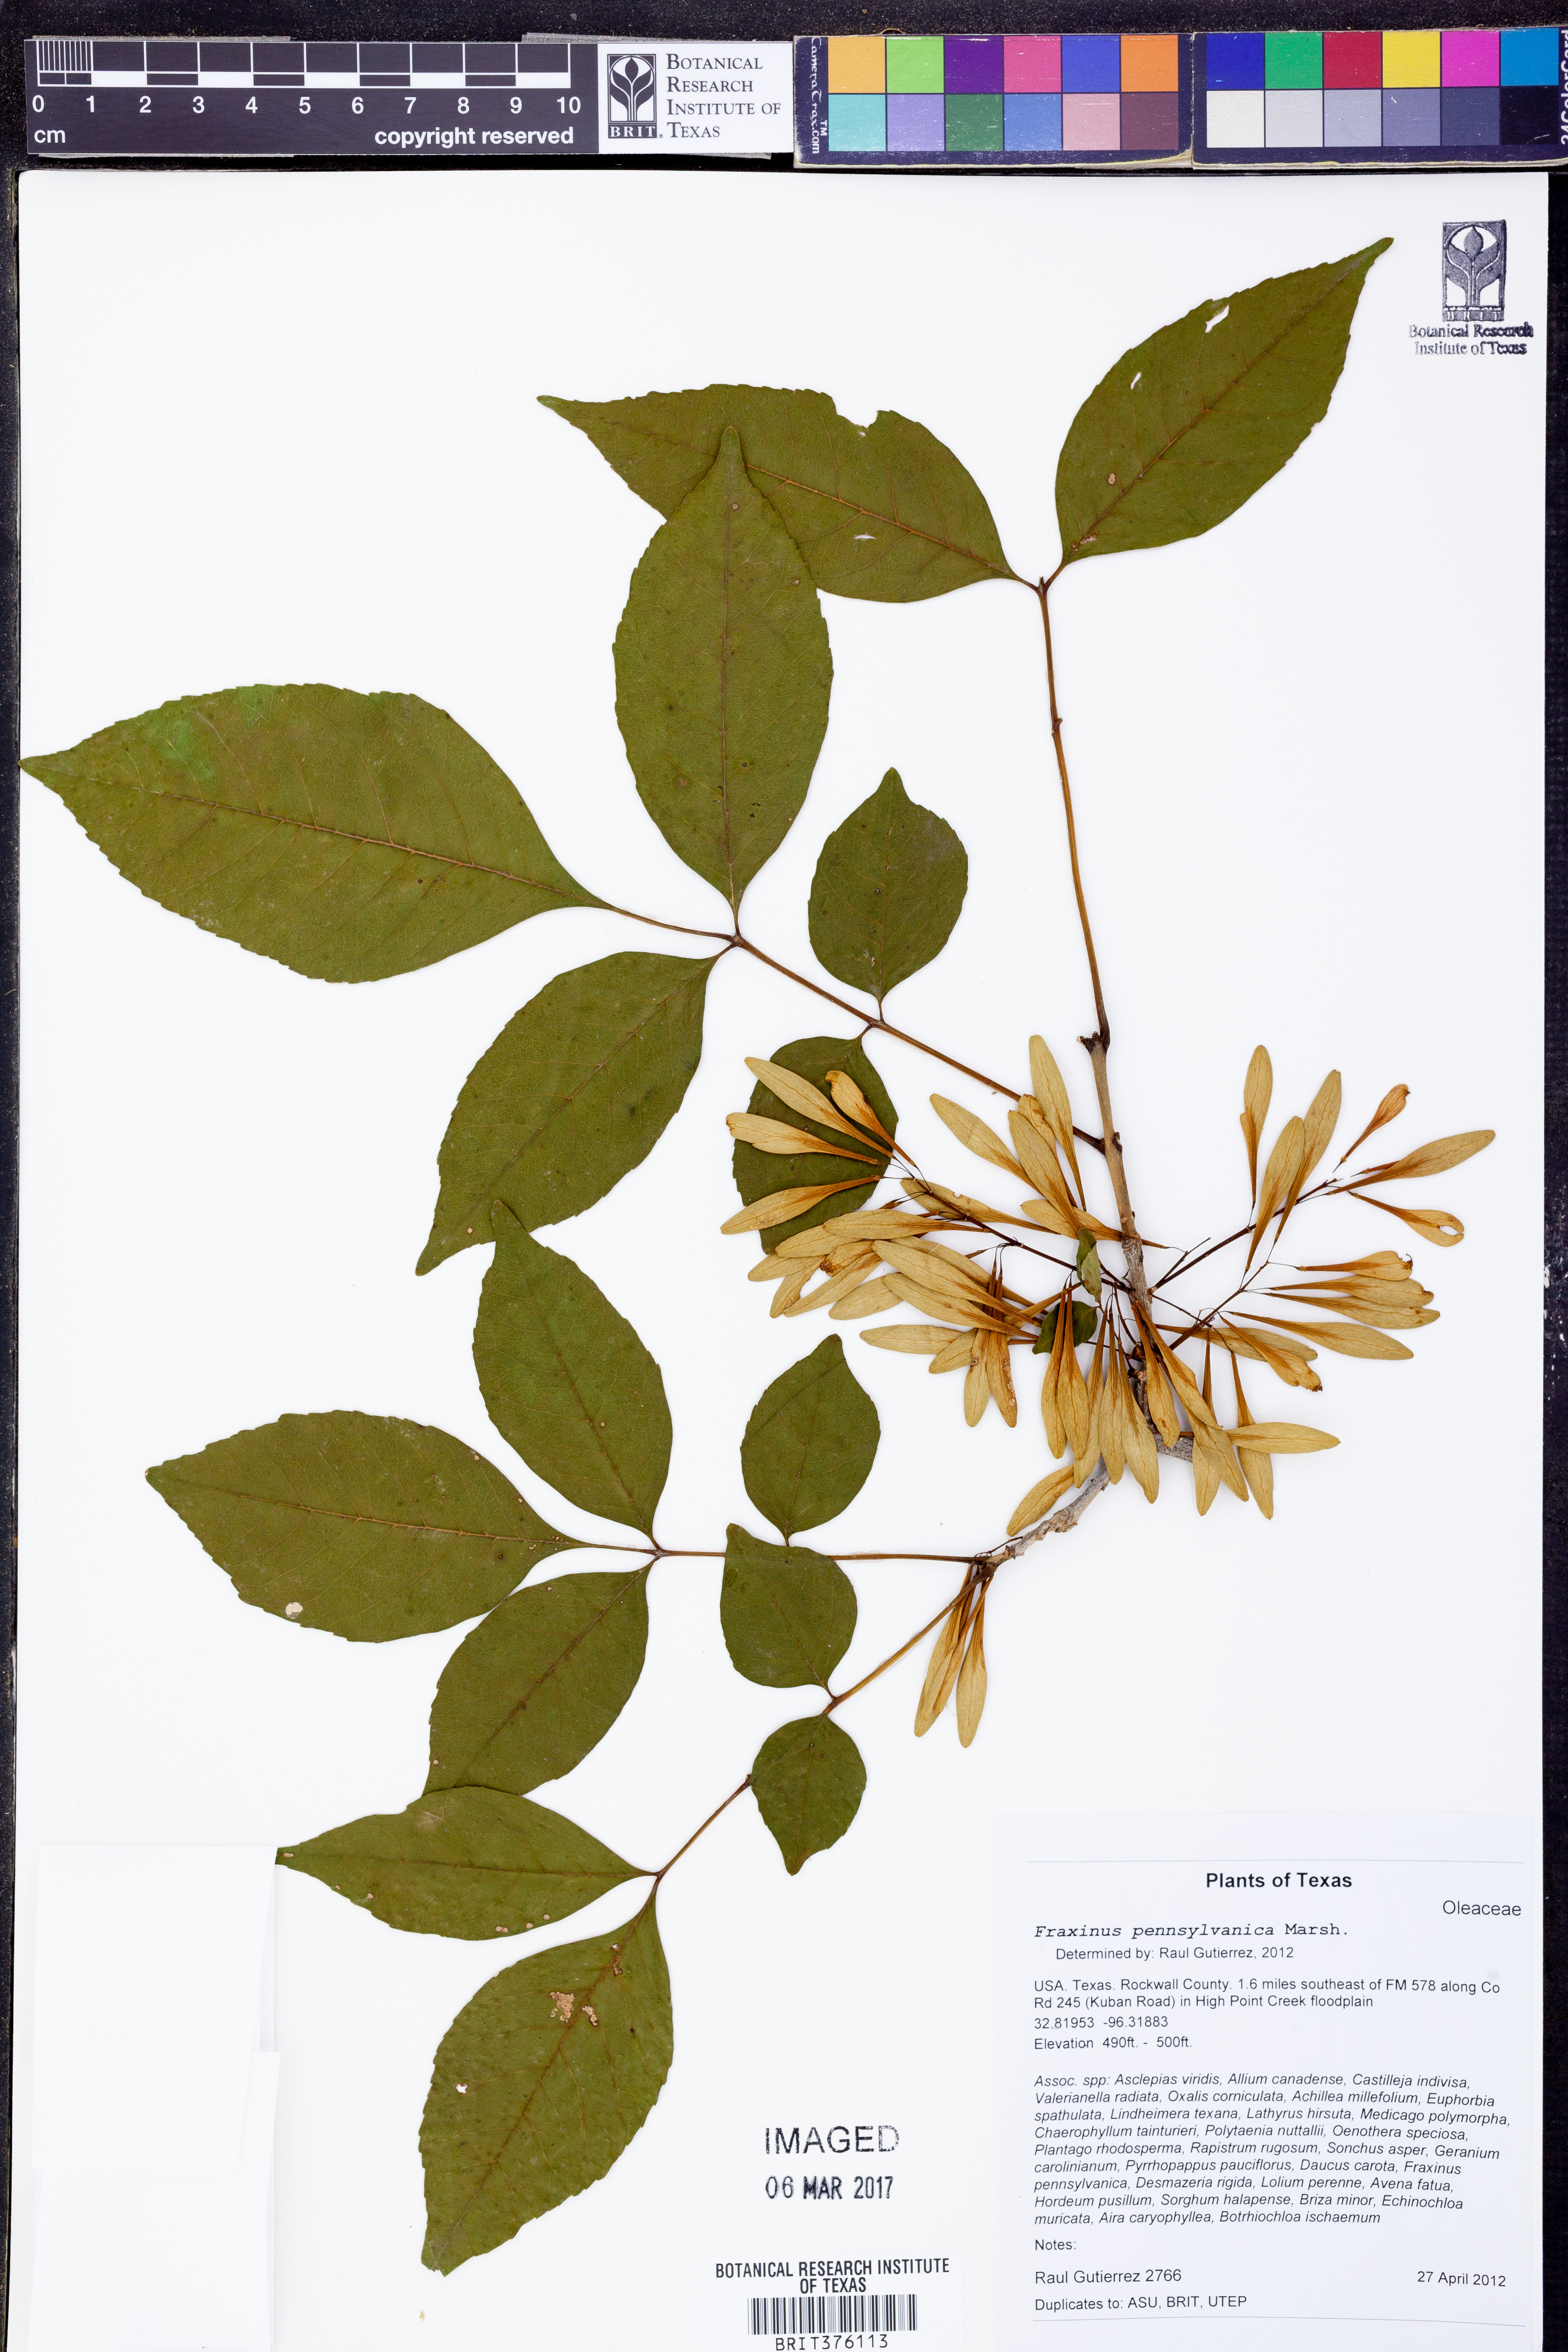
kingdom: Plantae
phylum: Tracheophyta
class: Magnoliopsida
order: Lamiales
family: Oleaceae
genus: Fraxinus
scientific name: Fraxinus pennsylvanica
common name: Green ash
